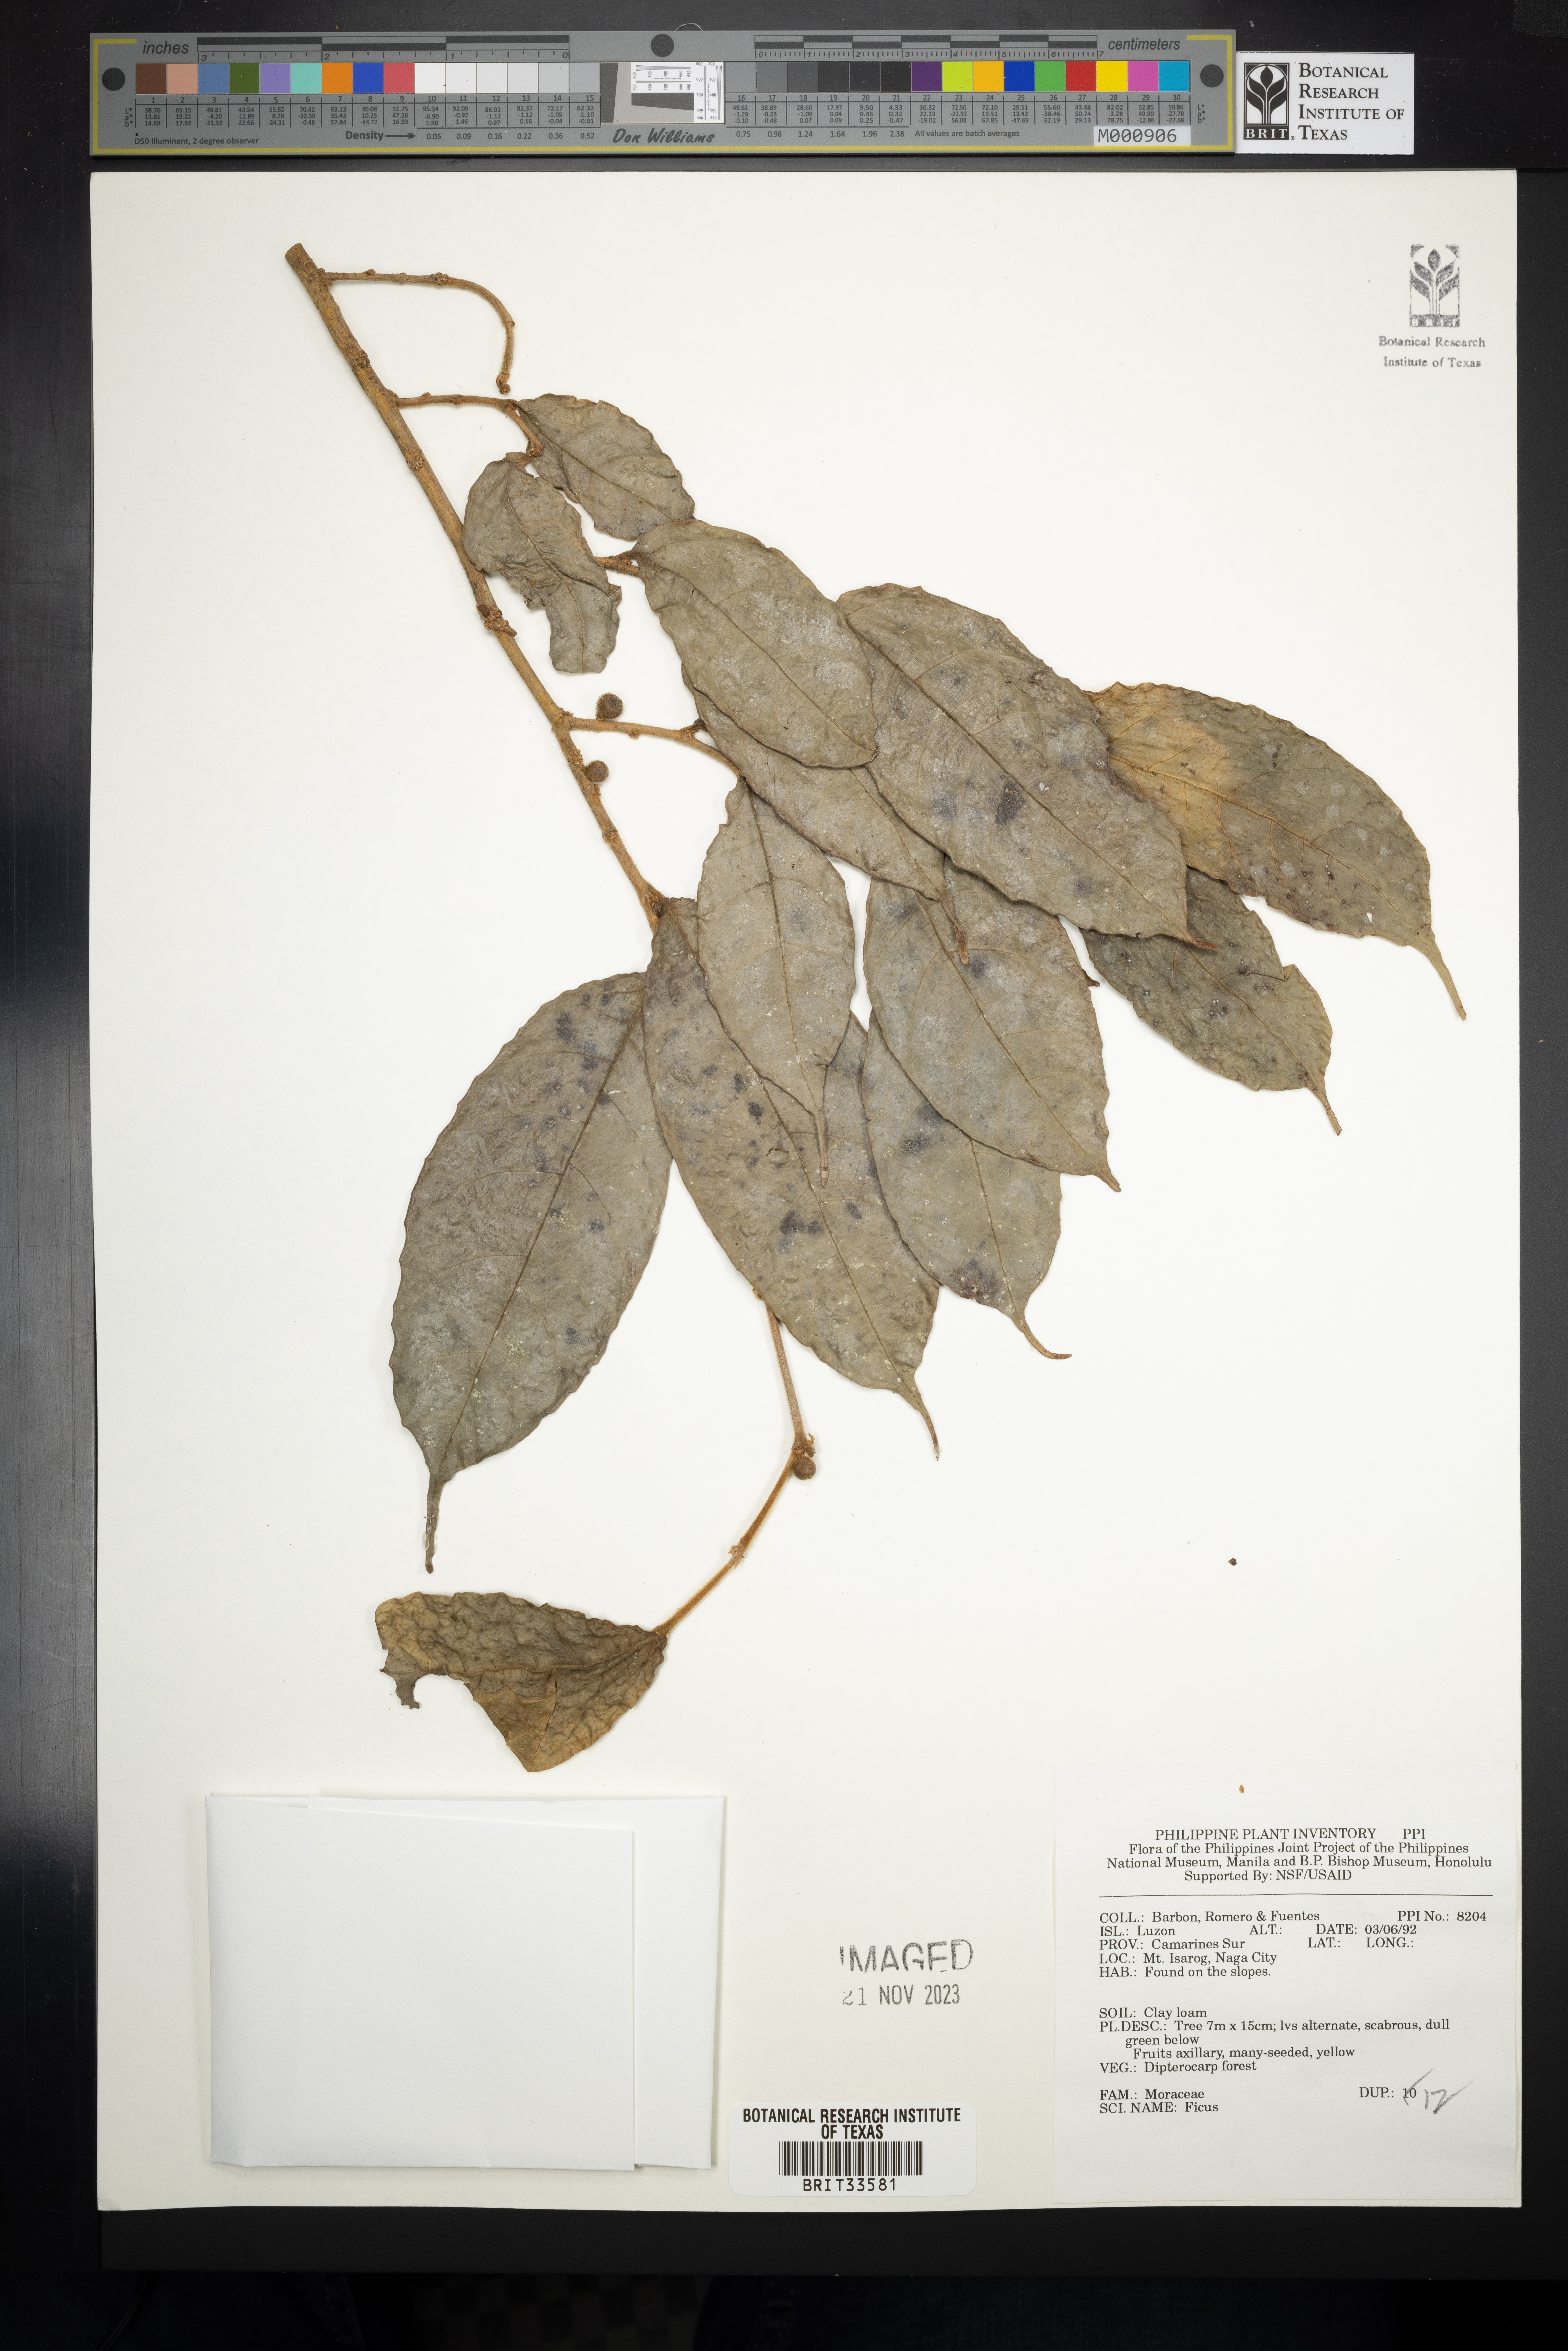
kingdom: Plantae
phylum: Tracheophyta
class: Magnoliopsida
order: Rosales
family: Moraceae
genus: Ficus
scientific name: Ficus
